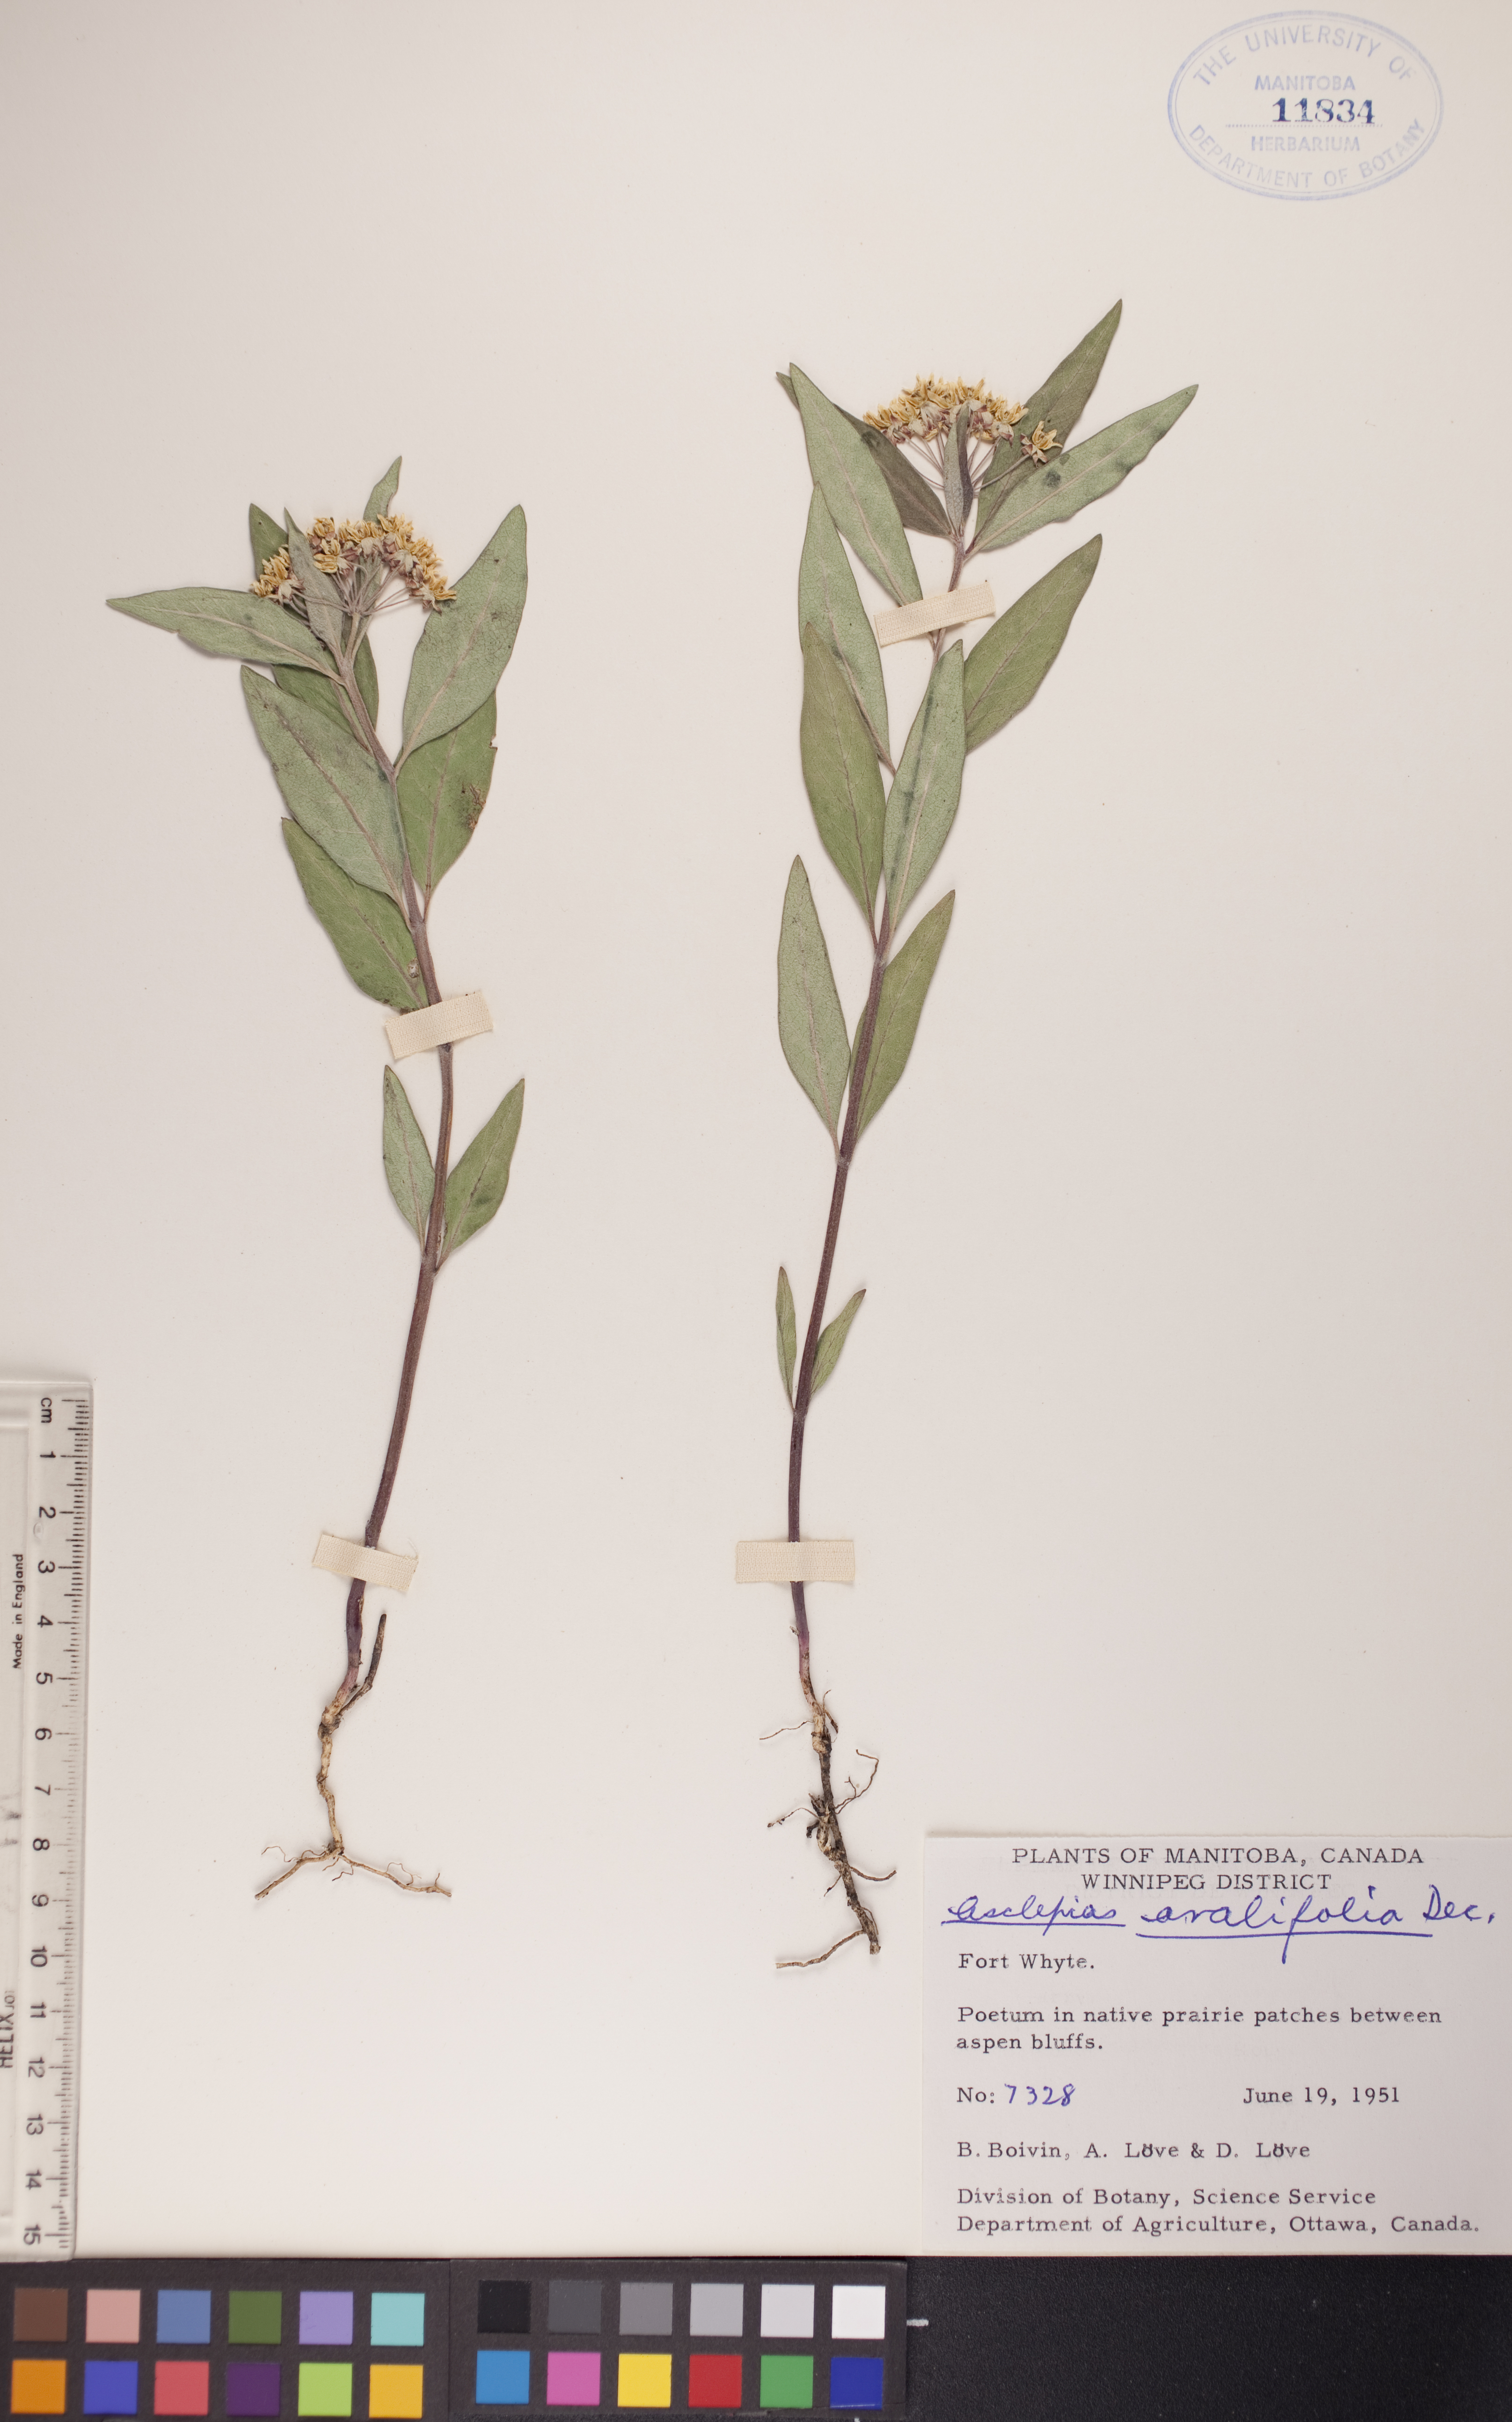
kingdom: Plantae
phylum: Tracheophyta
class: Magnoliopsida
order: Gentianales
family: Apocynaceae
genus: Asclepias
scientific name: Asclepias ovalifolia
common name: Dwarf milkweed
